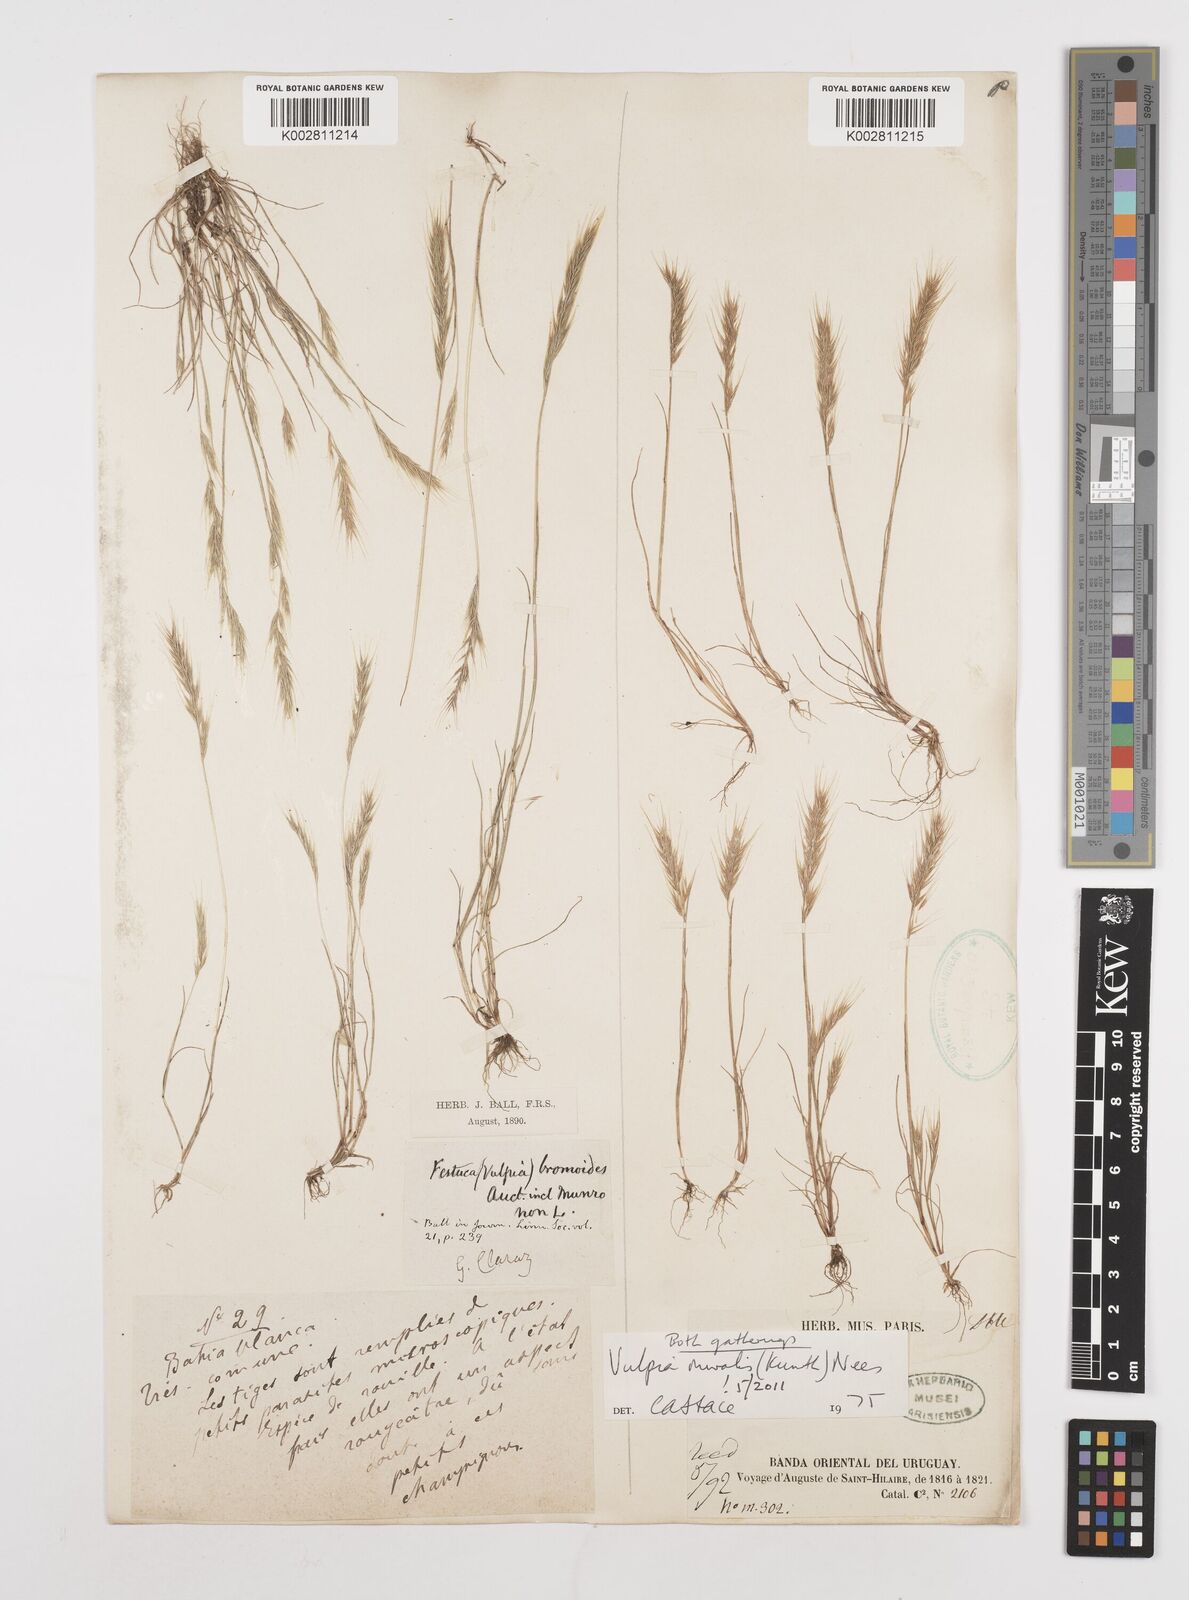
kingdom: Plantae
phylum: Tracheophyta
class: Liliopsida
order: Poales
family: Poaceae
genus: Festuca
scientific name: Festuca muralis
